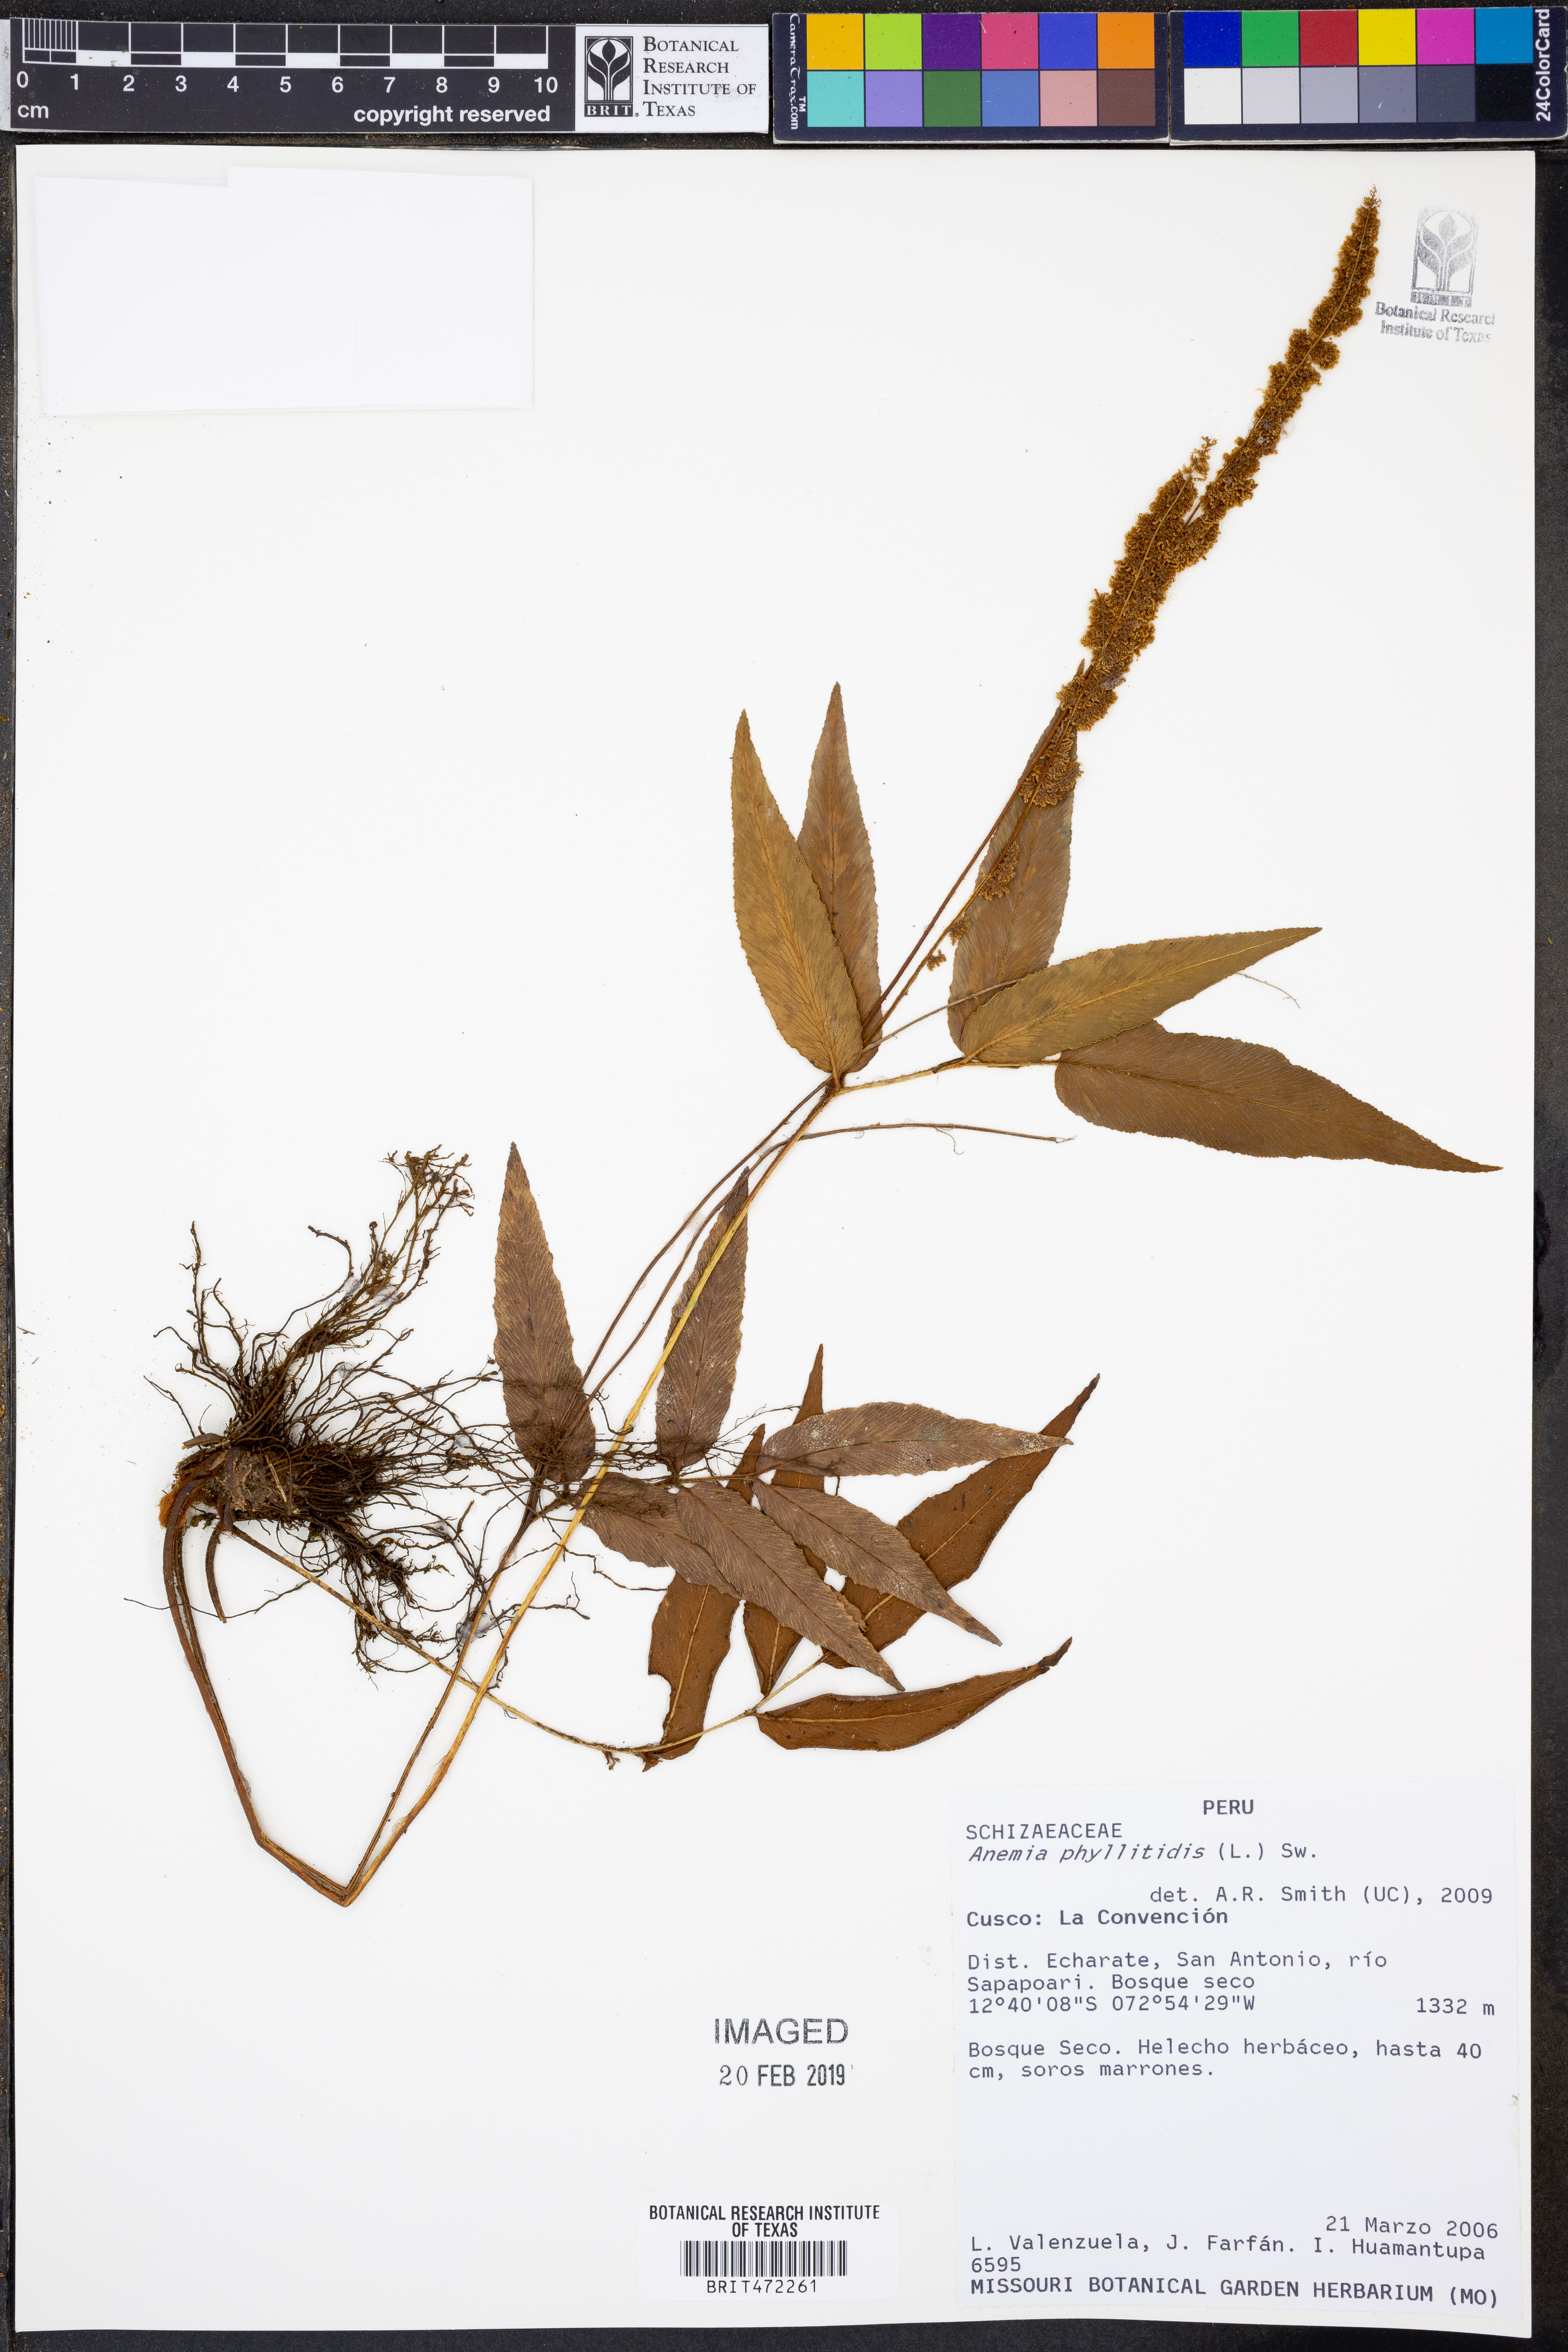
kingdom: Plantae
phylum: Tracheophyta
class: Polypodiopsida
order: Schizaeales
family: Anemiaceae
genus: Anemia
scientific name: Anemia phyllitidis
